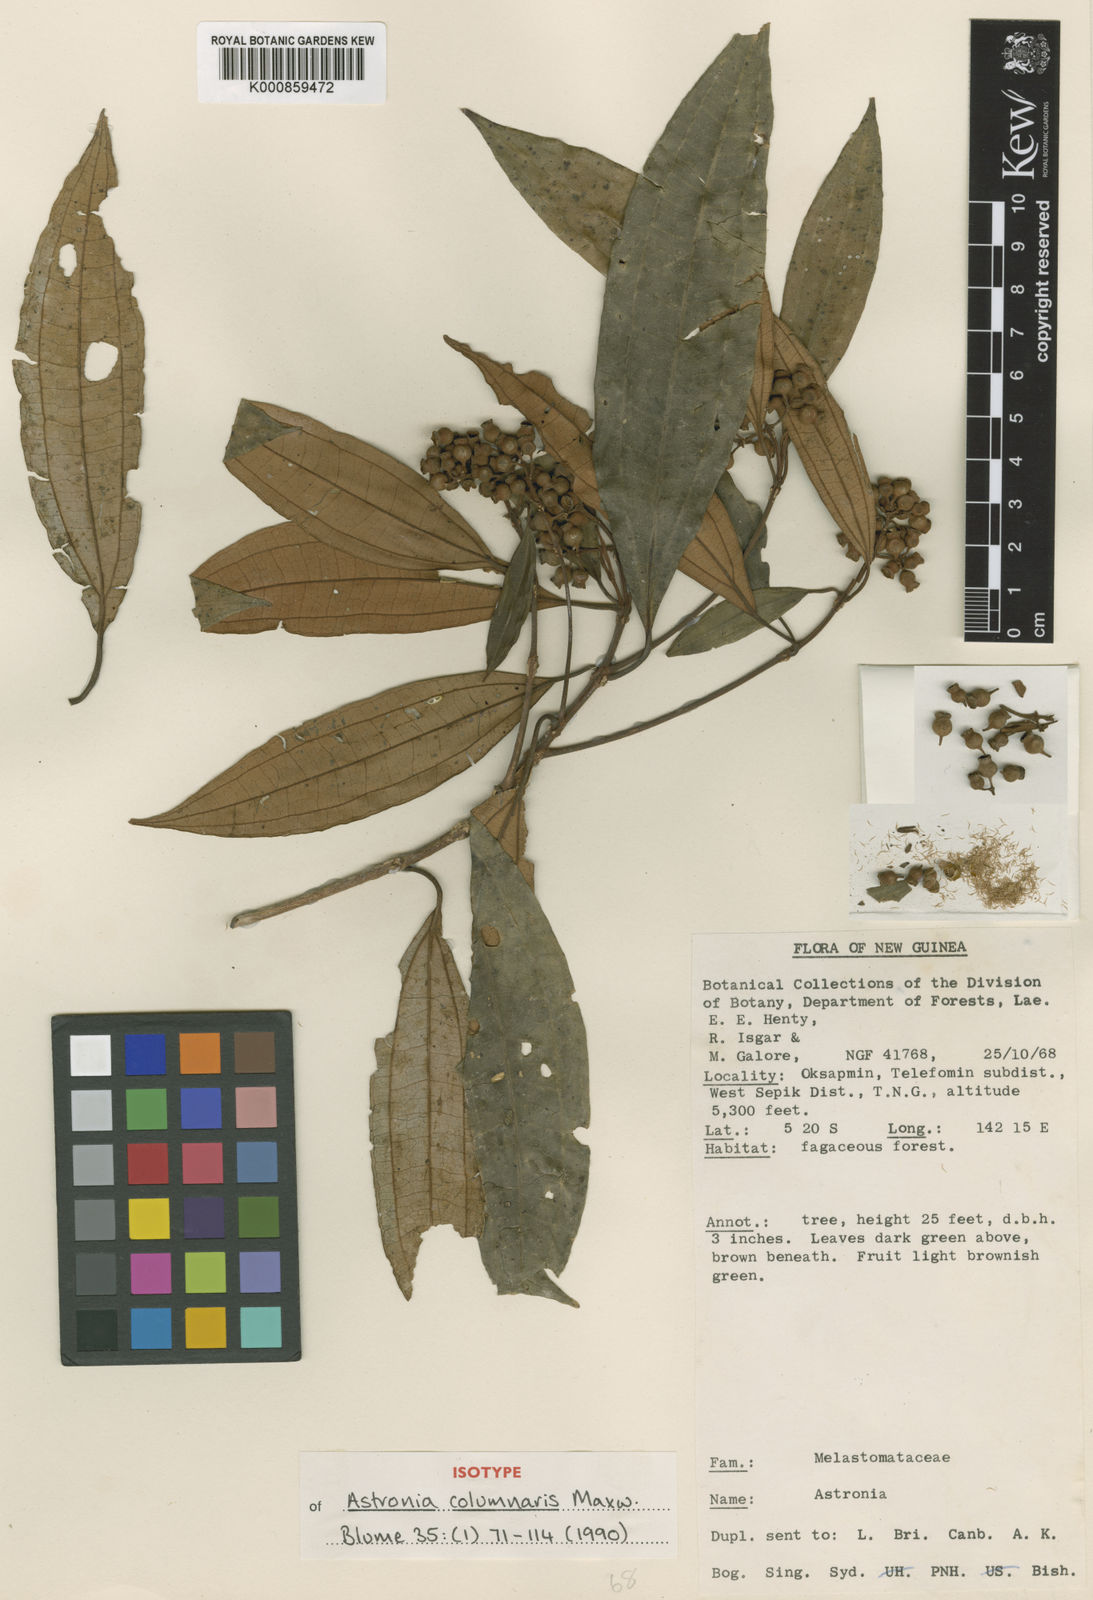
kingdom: Plantae
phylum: Tracheophyta
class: Magnoliopsida
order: Myrtales
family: Melastomataceae
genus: Astronia
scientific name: Astronia columnaris
